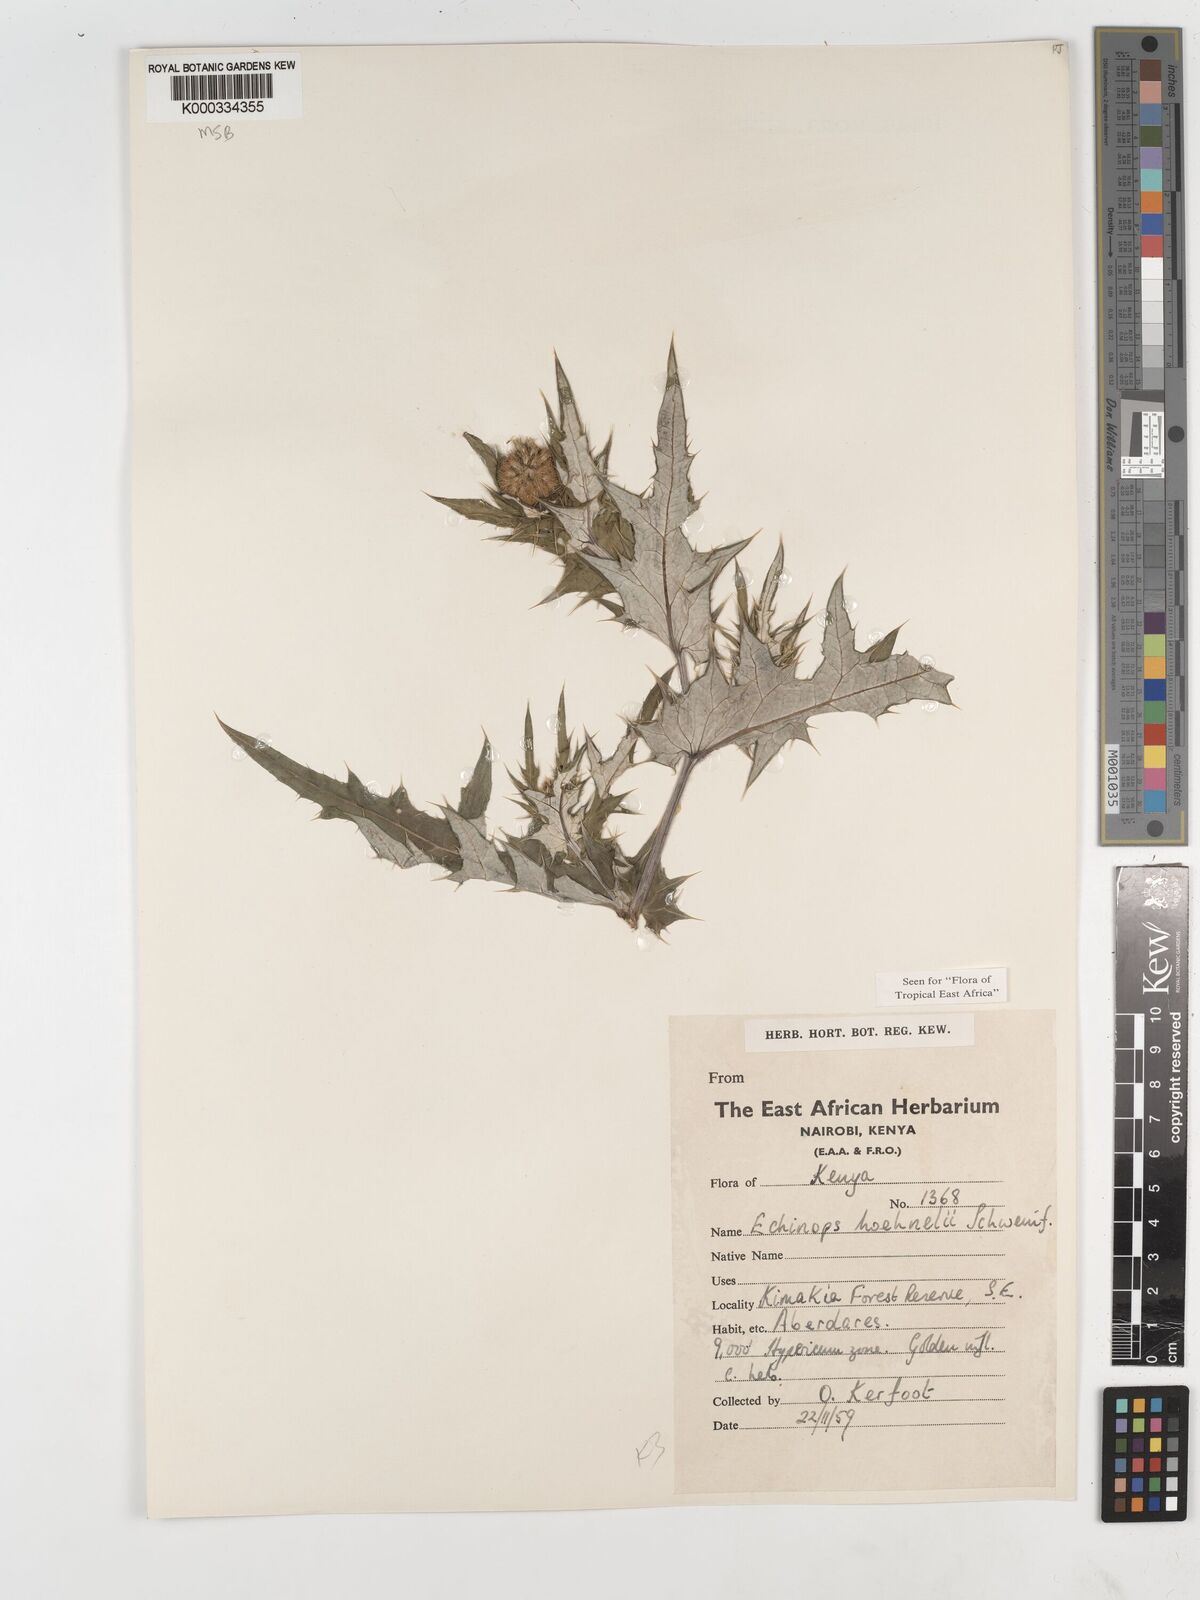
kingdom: Plantae
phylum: Tracheophyta
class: Magnoliopsida
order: Asterales
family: Asteraceae
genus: Echinops
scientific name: Echinops hoehnelii
